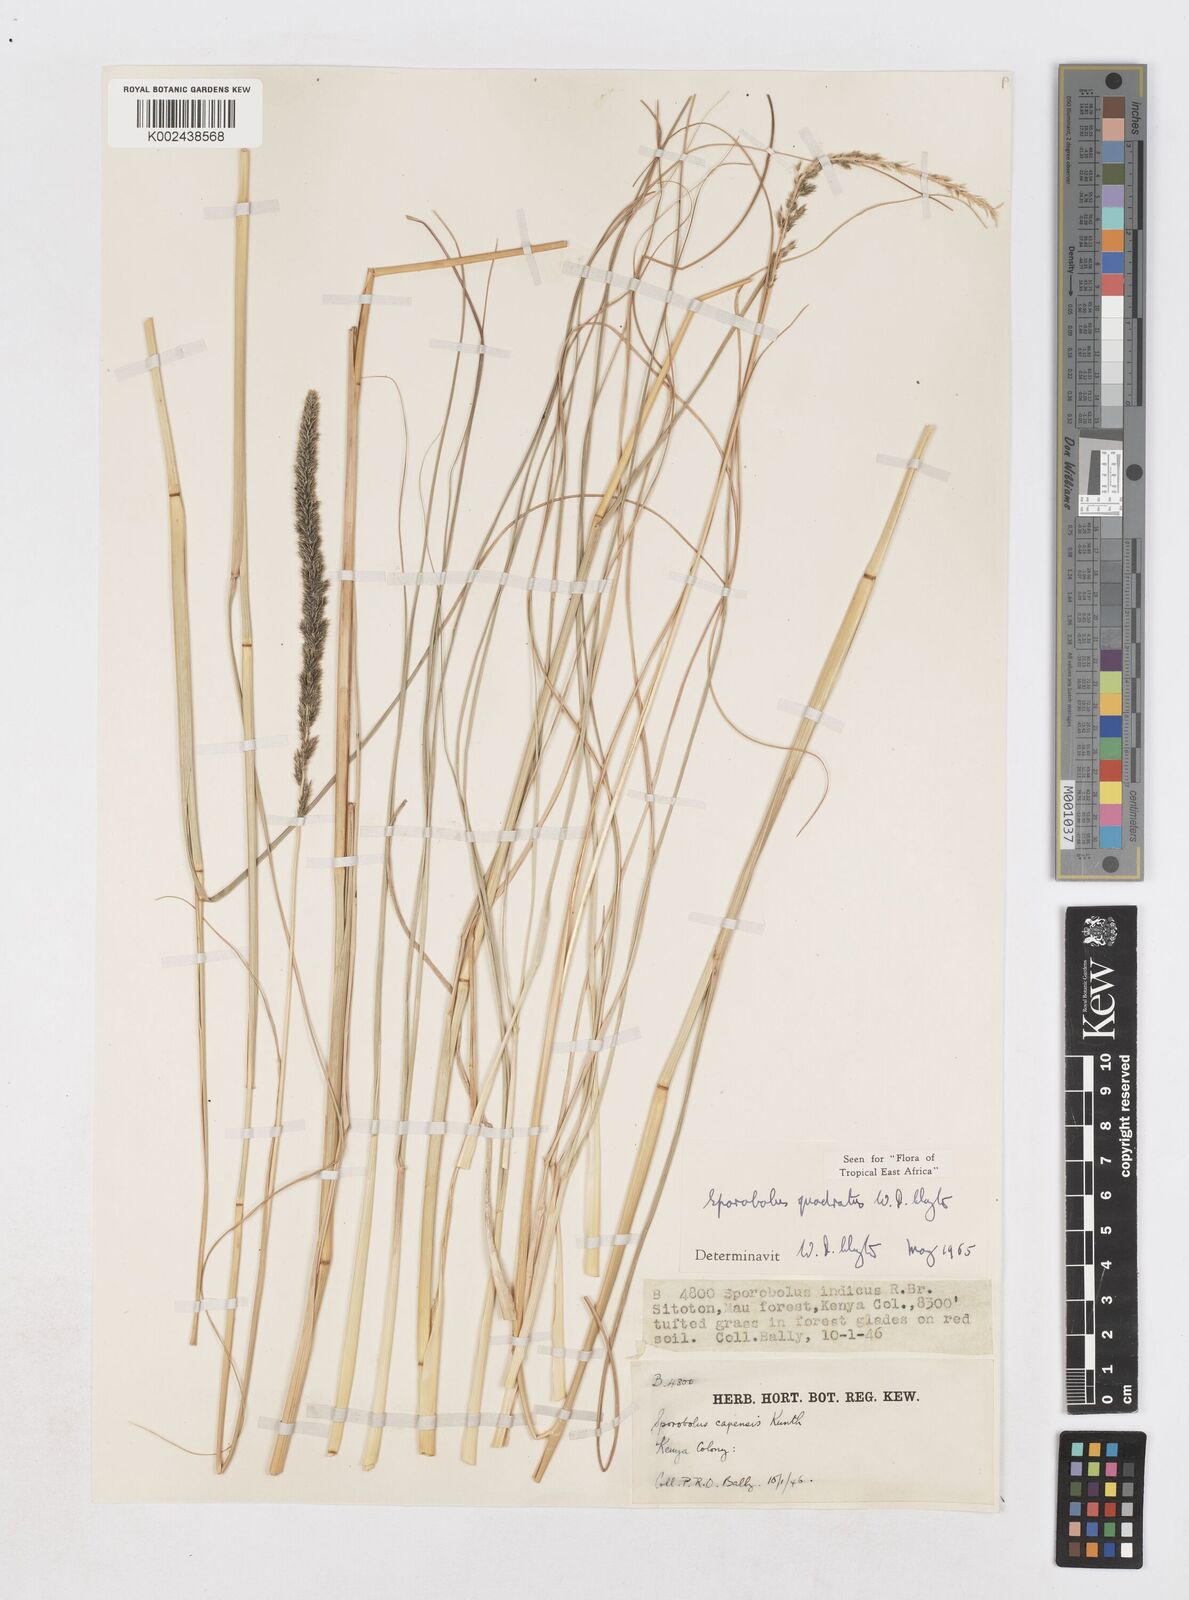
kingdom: Plantae
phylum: Tracheophyta
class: Liliopsida
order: Poales
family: Poaceae
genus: Sporobolus
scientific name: Sporobolus quadratus
